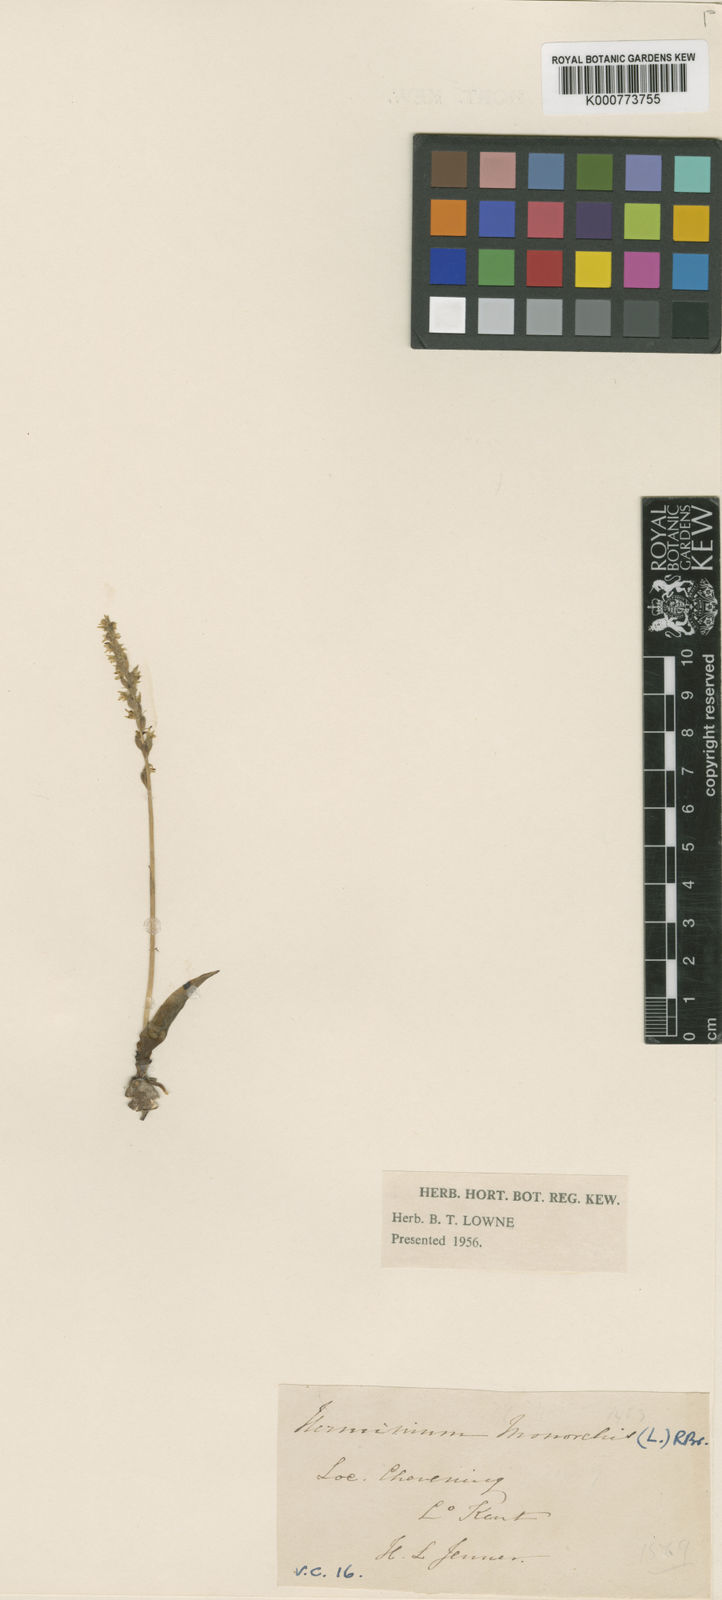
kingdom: Plantae
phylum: Tracheophyta
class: Liliopsida
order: Asparagales
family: Orchidaceae
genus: Herminium
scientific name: Herminium monorchis
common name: Musk orchid
